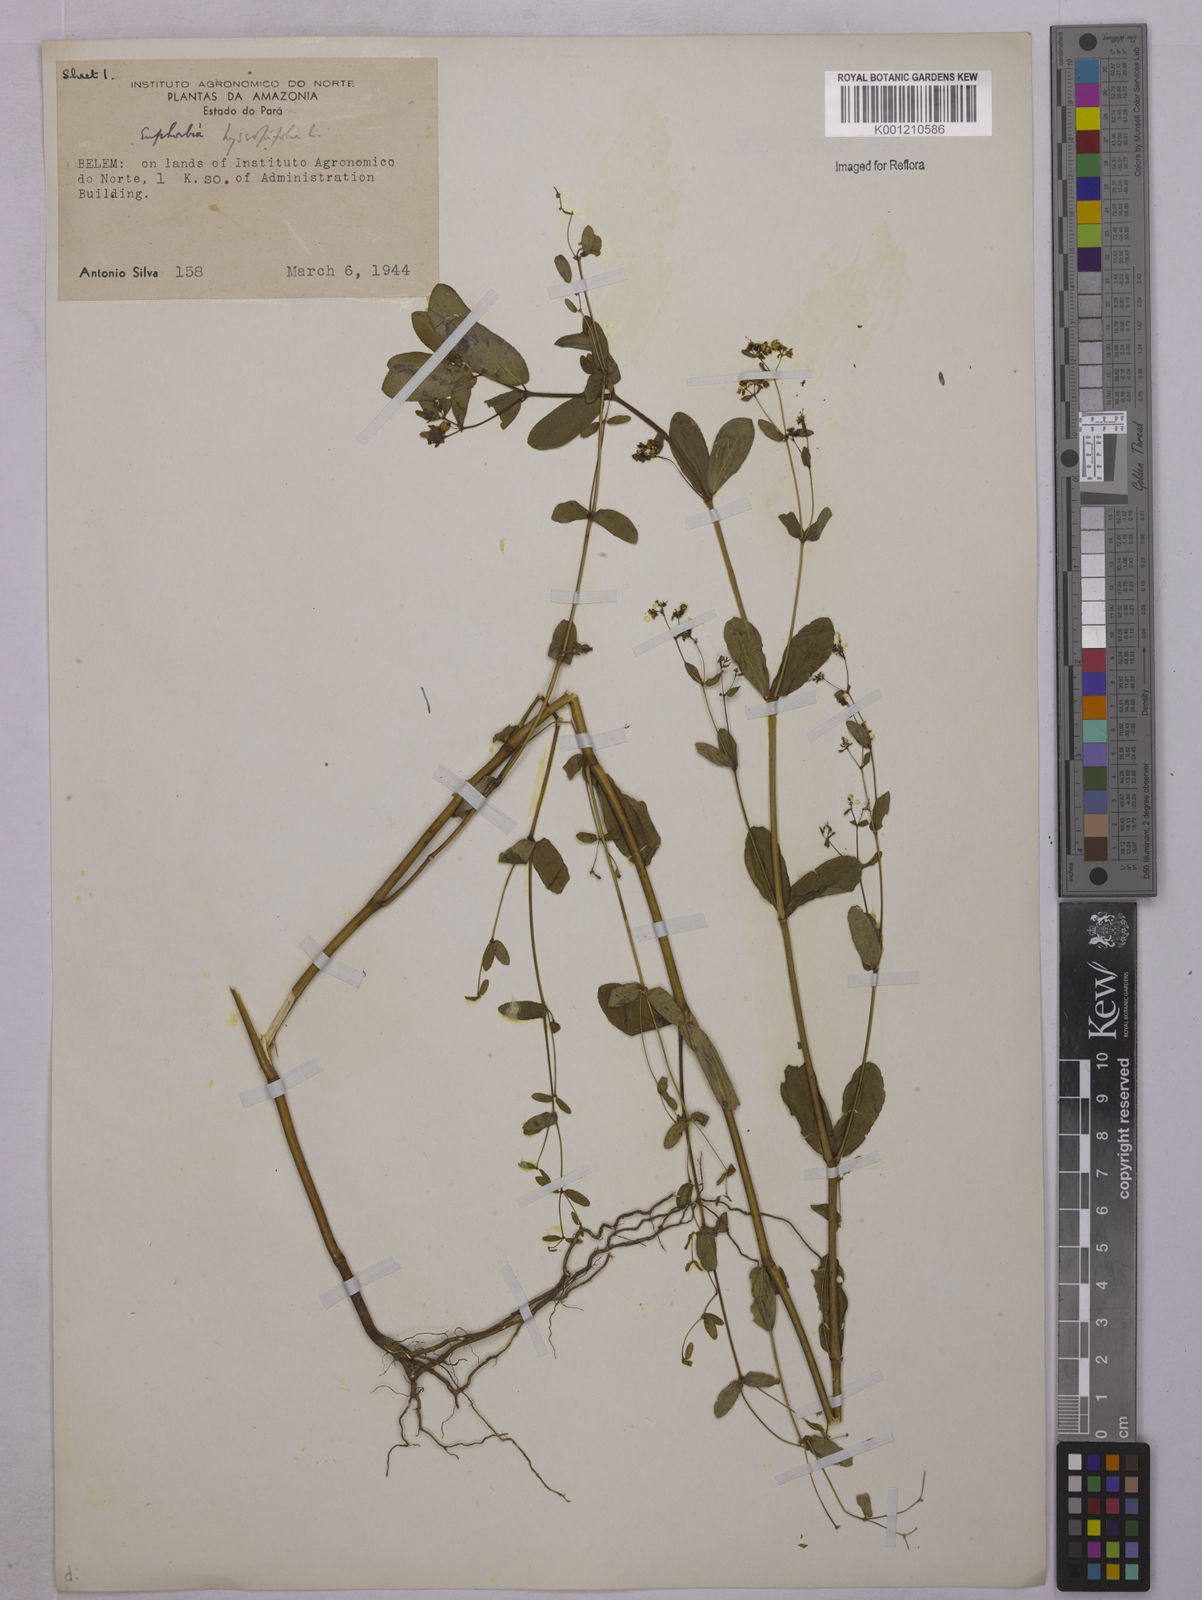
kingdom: Plantae
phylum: Tracheophyta
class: Magnoliopsida
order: Malpighiales
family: Euphorbiaceae
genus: Euphorbia
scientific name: Euphorbia hyssopifolia
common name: Hyssopleaf sandmat
